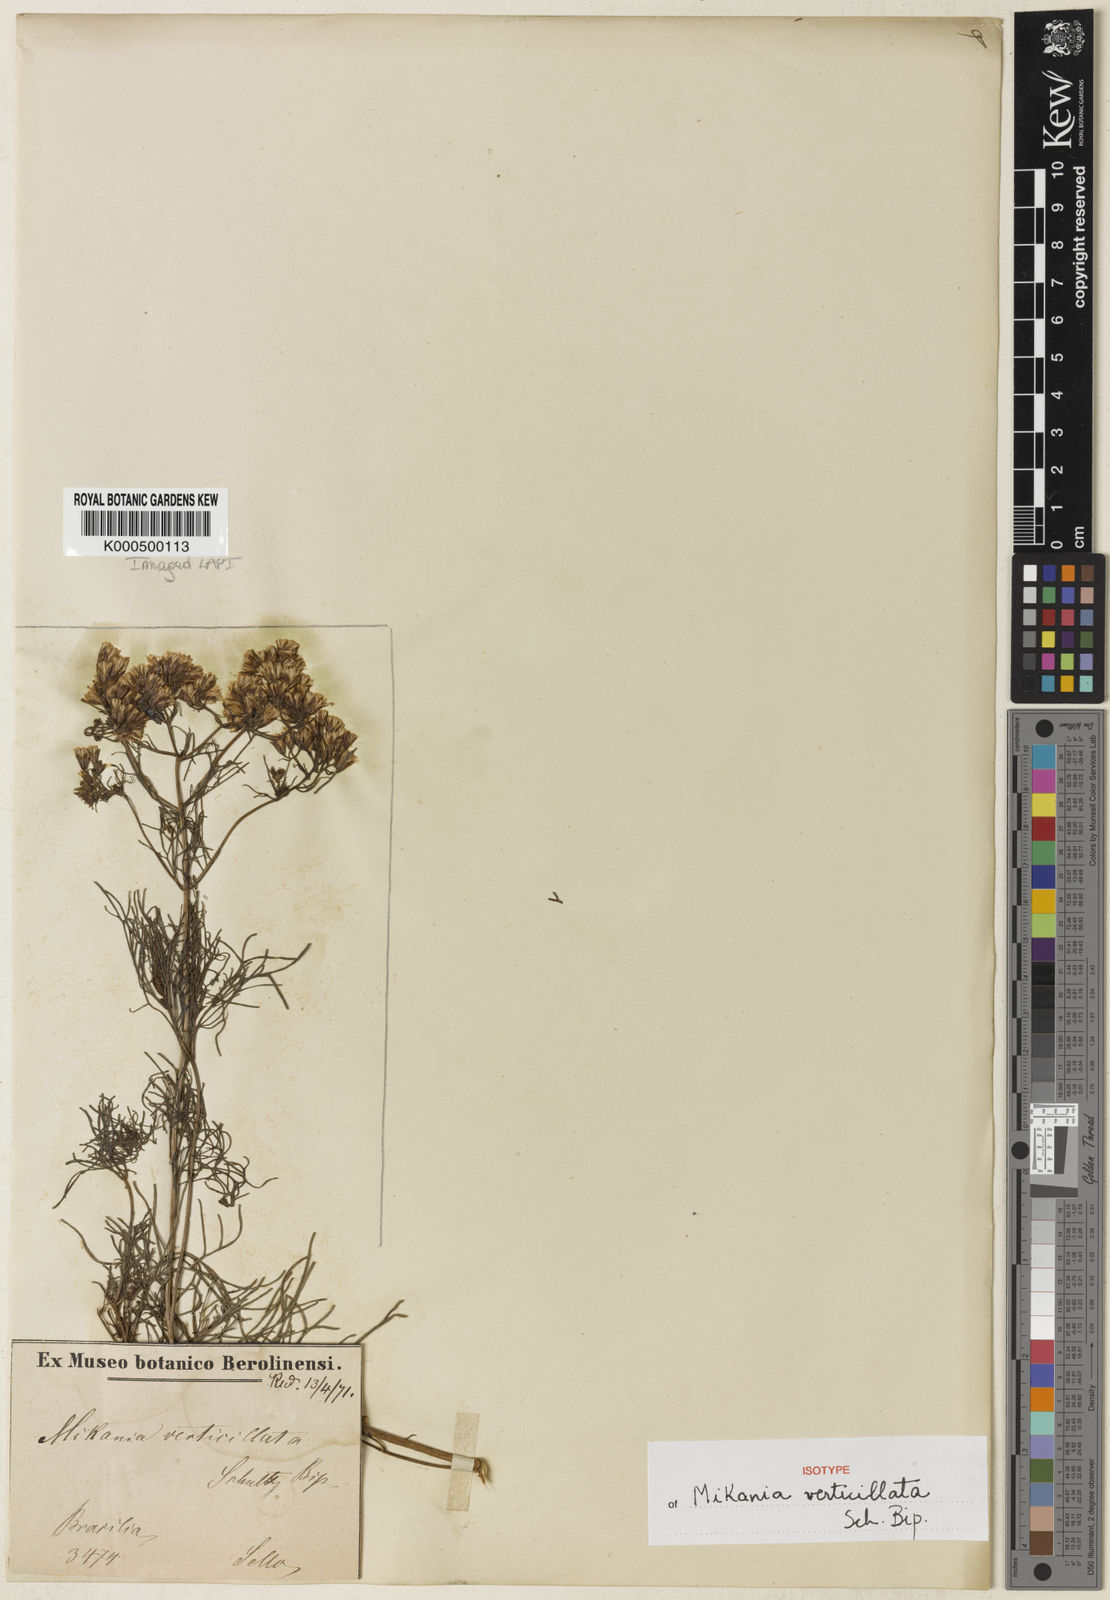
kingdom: Plantae
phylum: Tracheophyta
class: Magnoliopsida
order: Asterales
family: Asteraceae
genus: Mikania
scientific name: Mikania anethifolia
